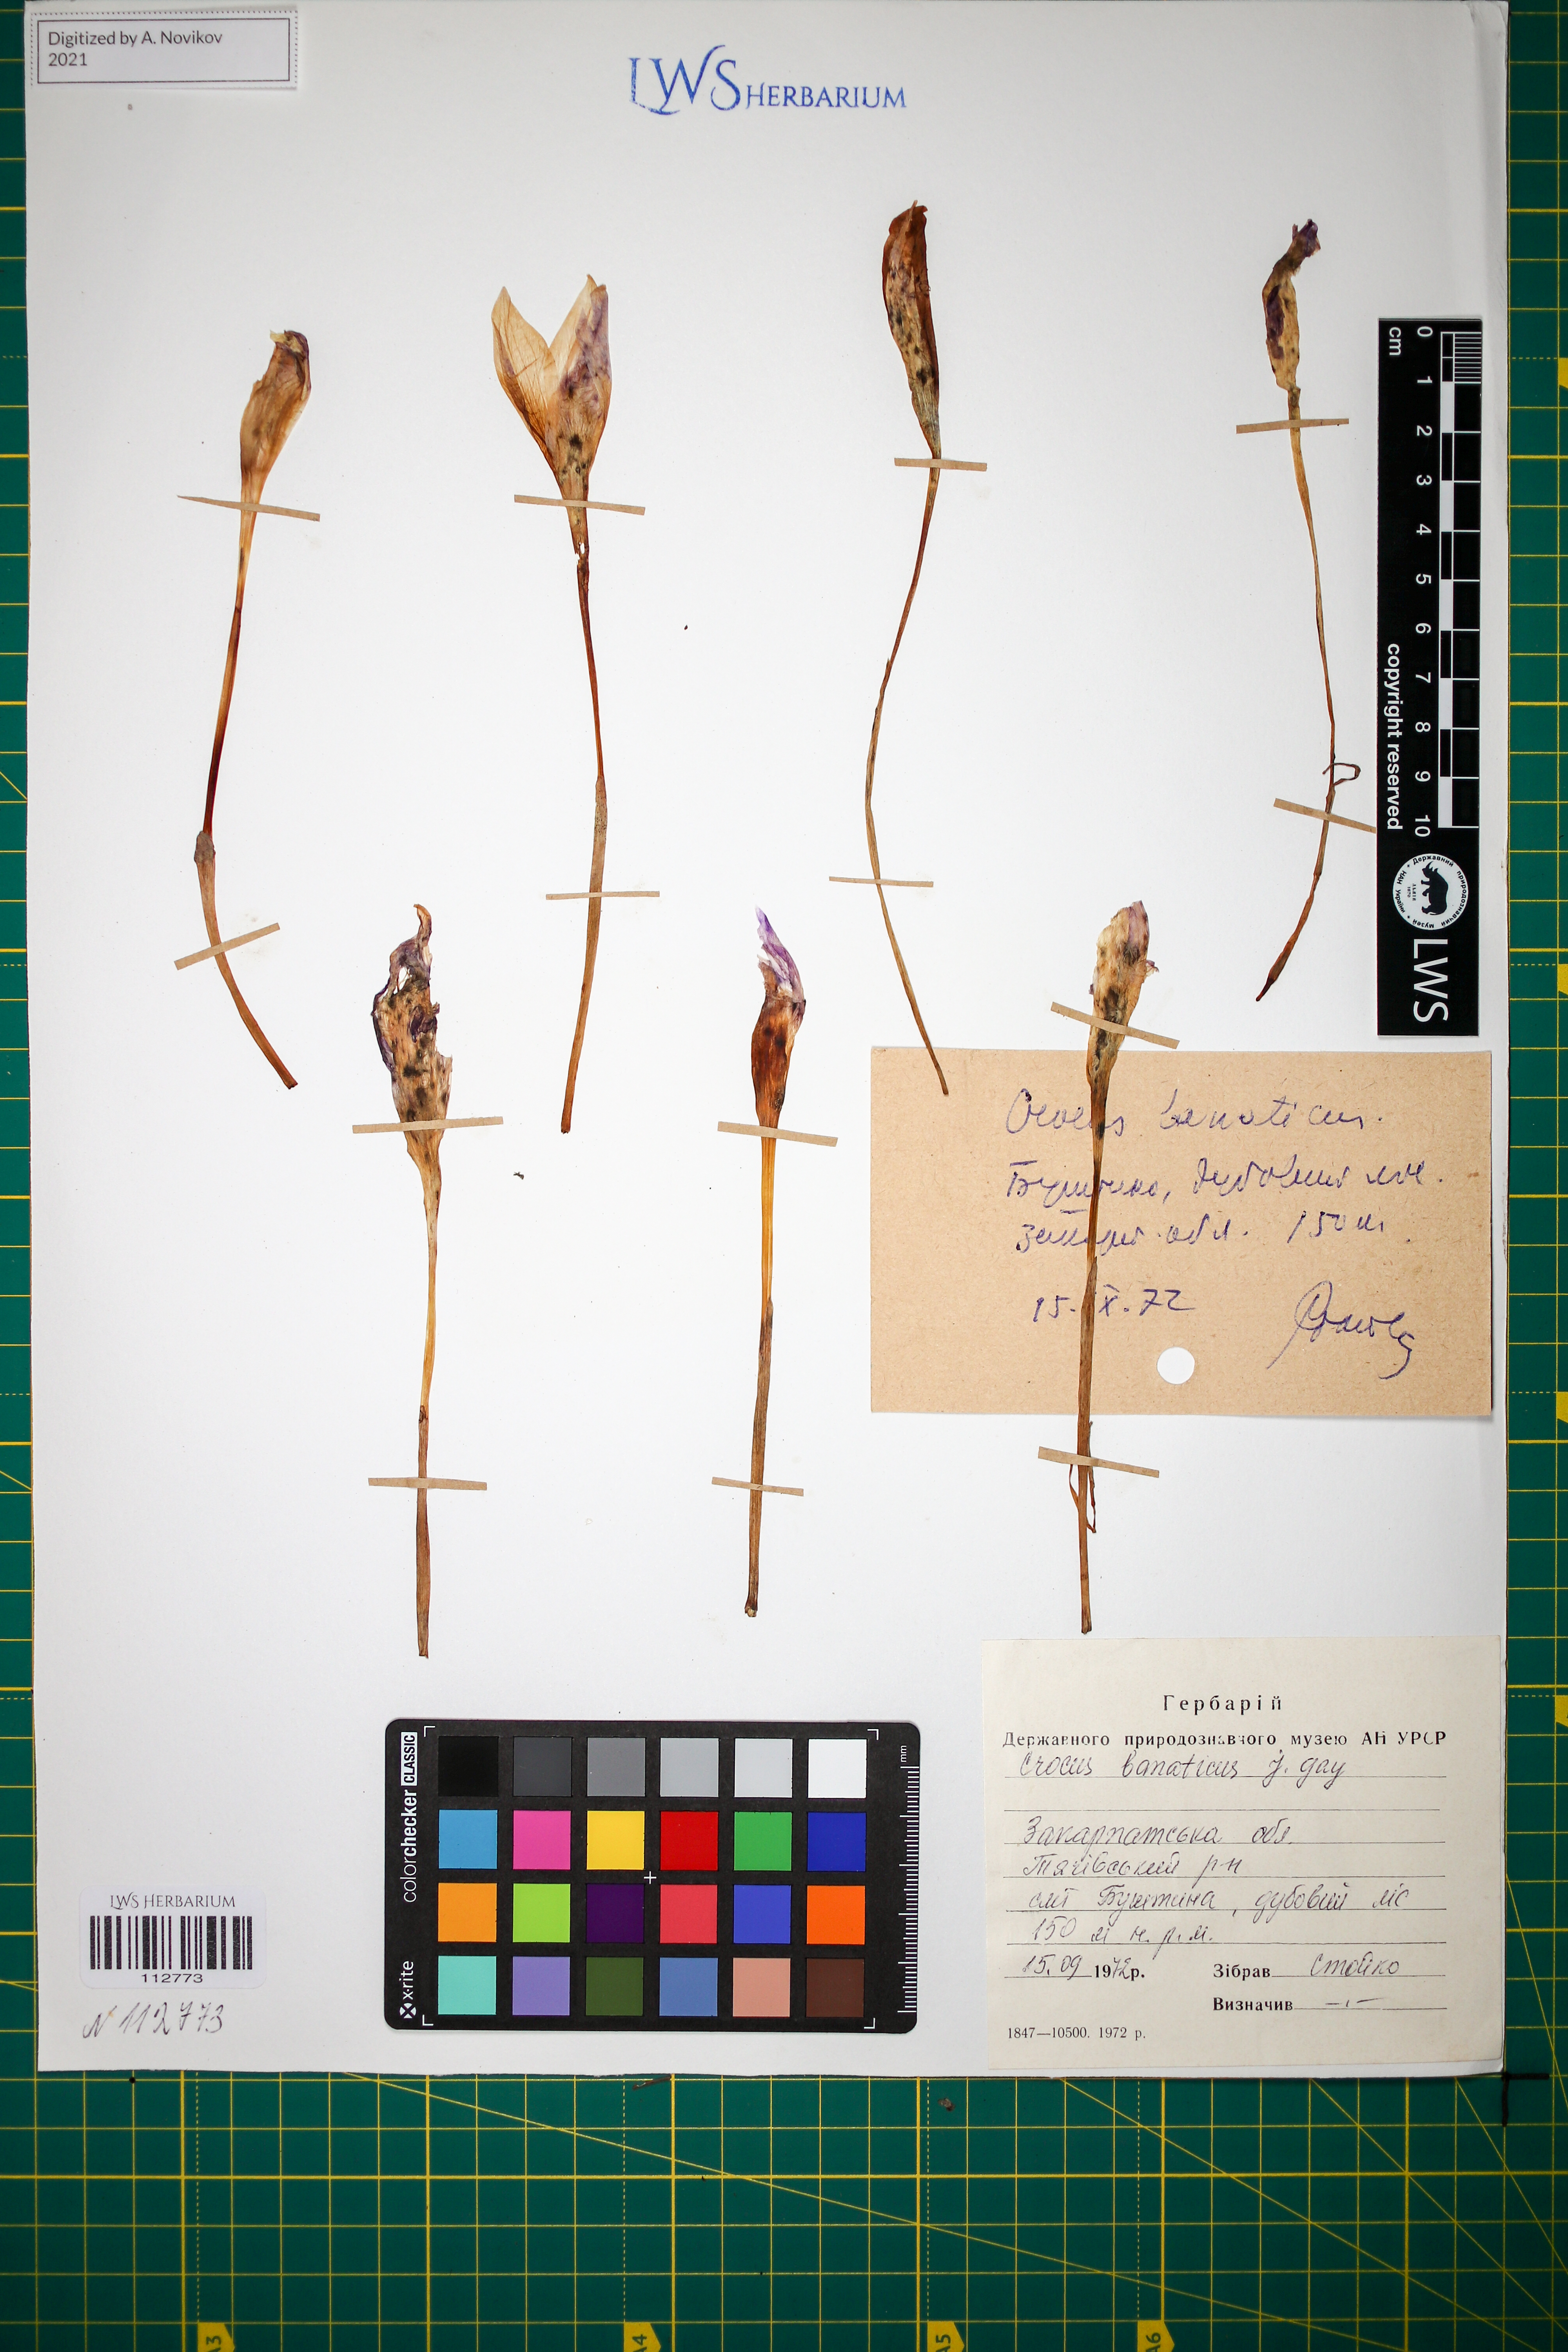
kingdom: Plantae
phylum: Tracheophyta
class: Liliopsida
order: Asparagales
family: Iridaceae
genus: Crocus
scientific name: Crocus banaticus
